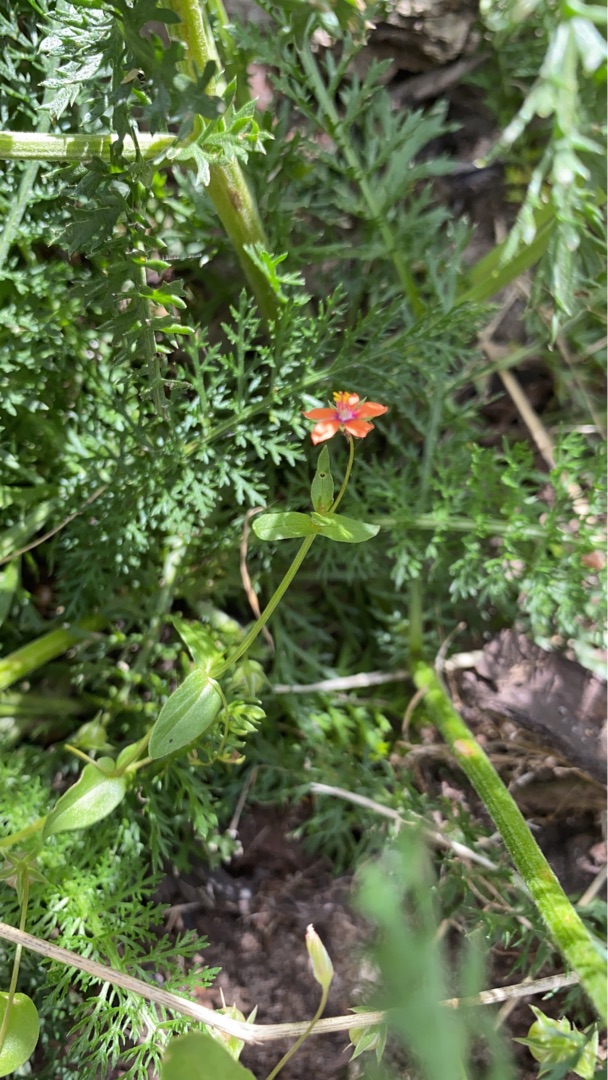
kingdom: Plantae
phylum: Tracheophyta
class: Magnoliopsida
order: Ericales
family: Primulaceae
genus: Lysimachia
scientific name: Lysimachia arvensis
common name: Rød arve
